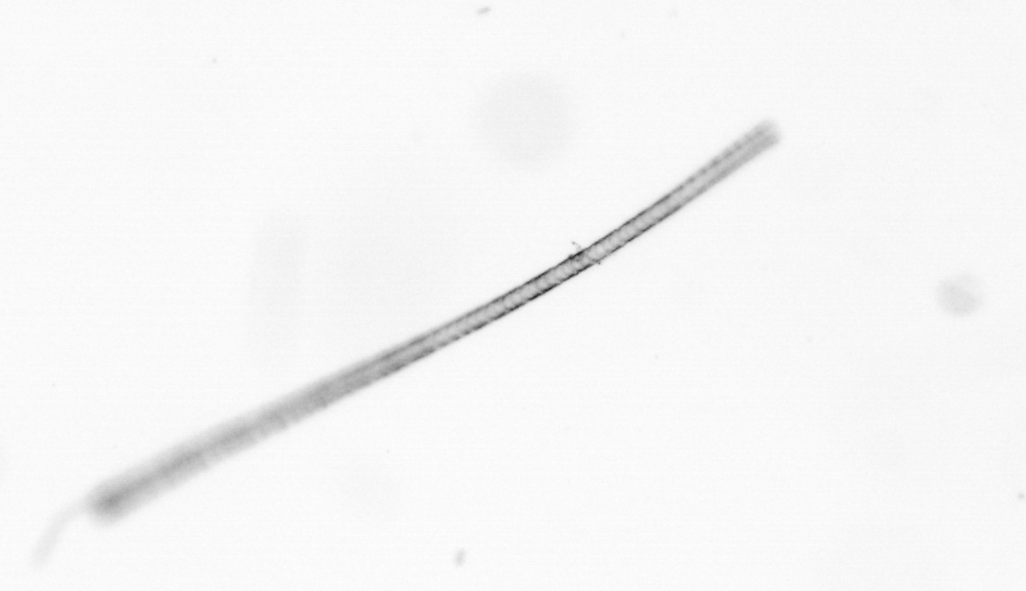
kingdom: Chromista
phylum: Ochrophyta
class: Bacillariophyceae
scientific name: Bacillariophyceae
